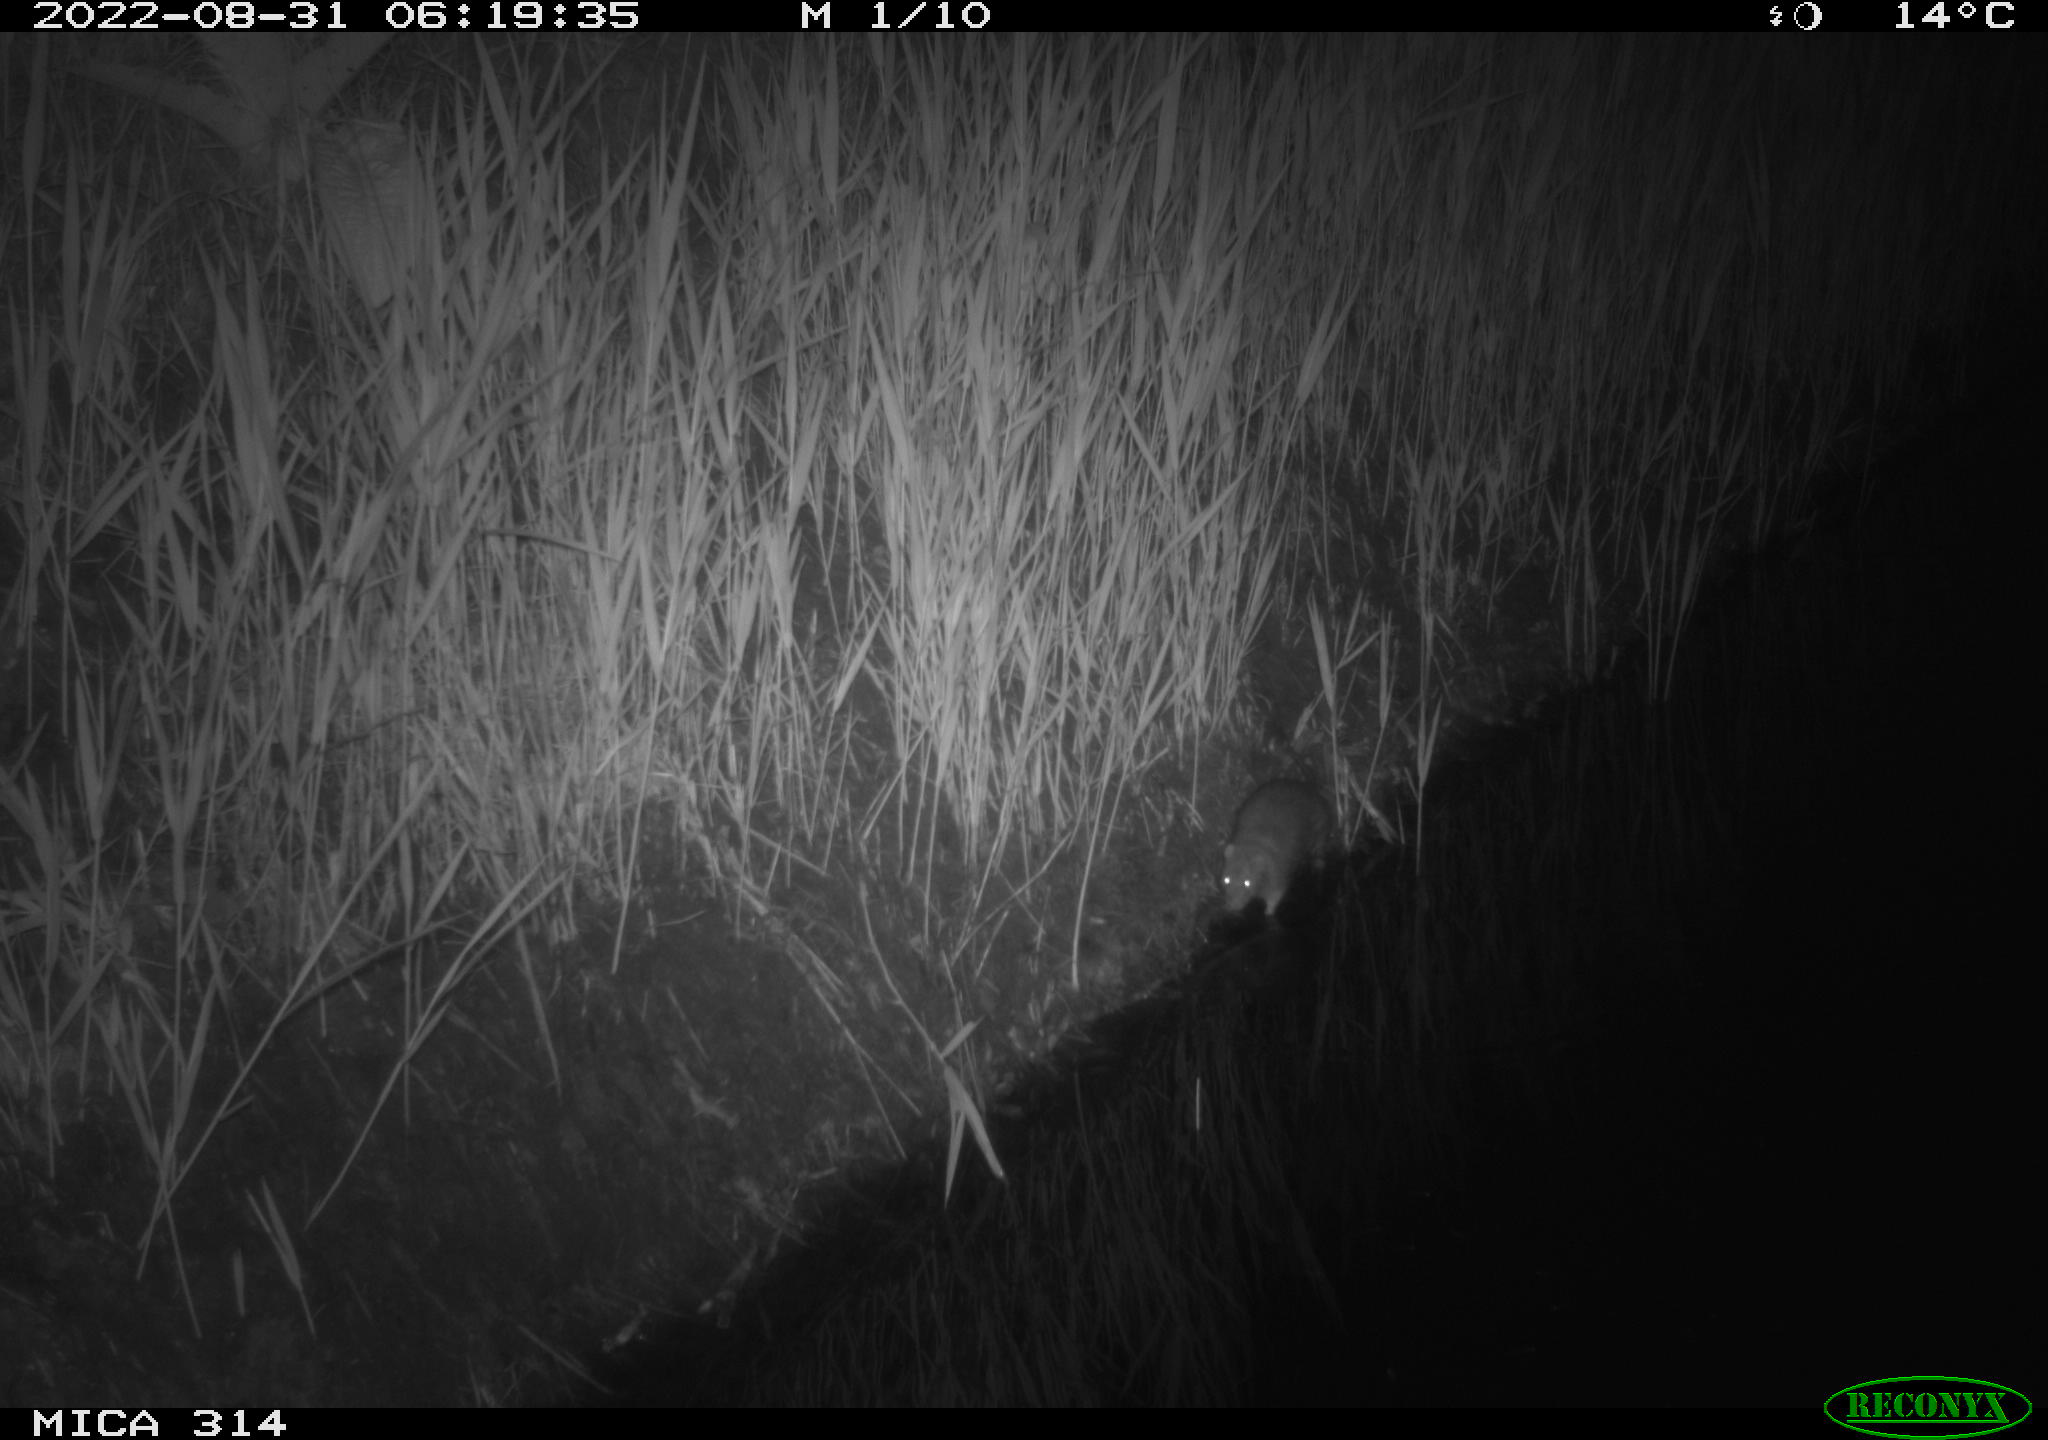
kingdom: Animalia
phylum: Chordata
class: Mammalia
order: Rodentia
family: Muridae
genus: Rattus
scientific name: Rattus norvegicus
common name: Brown rat
